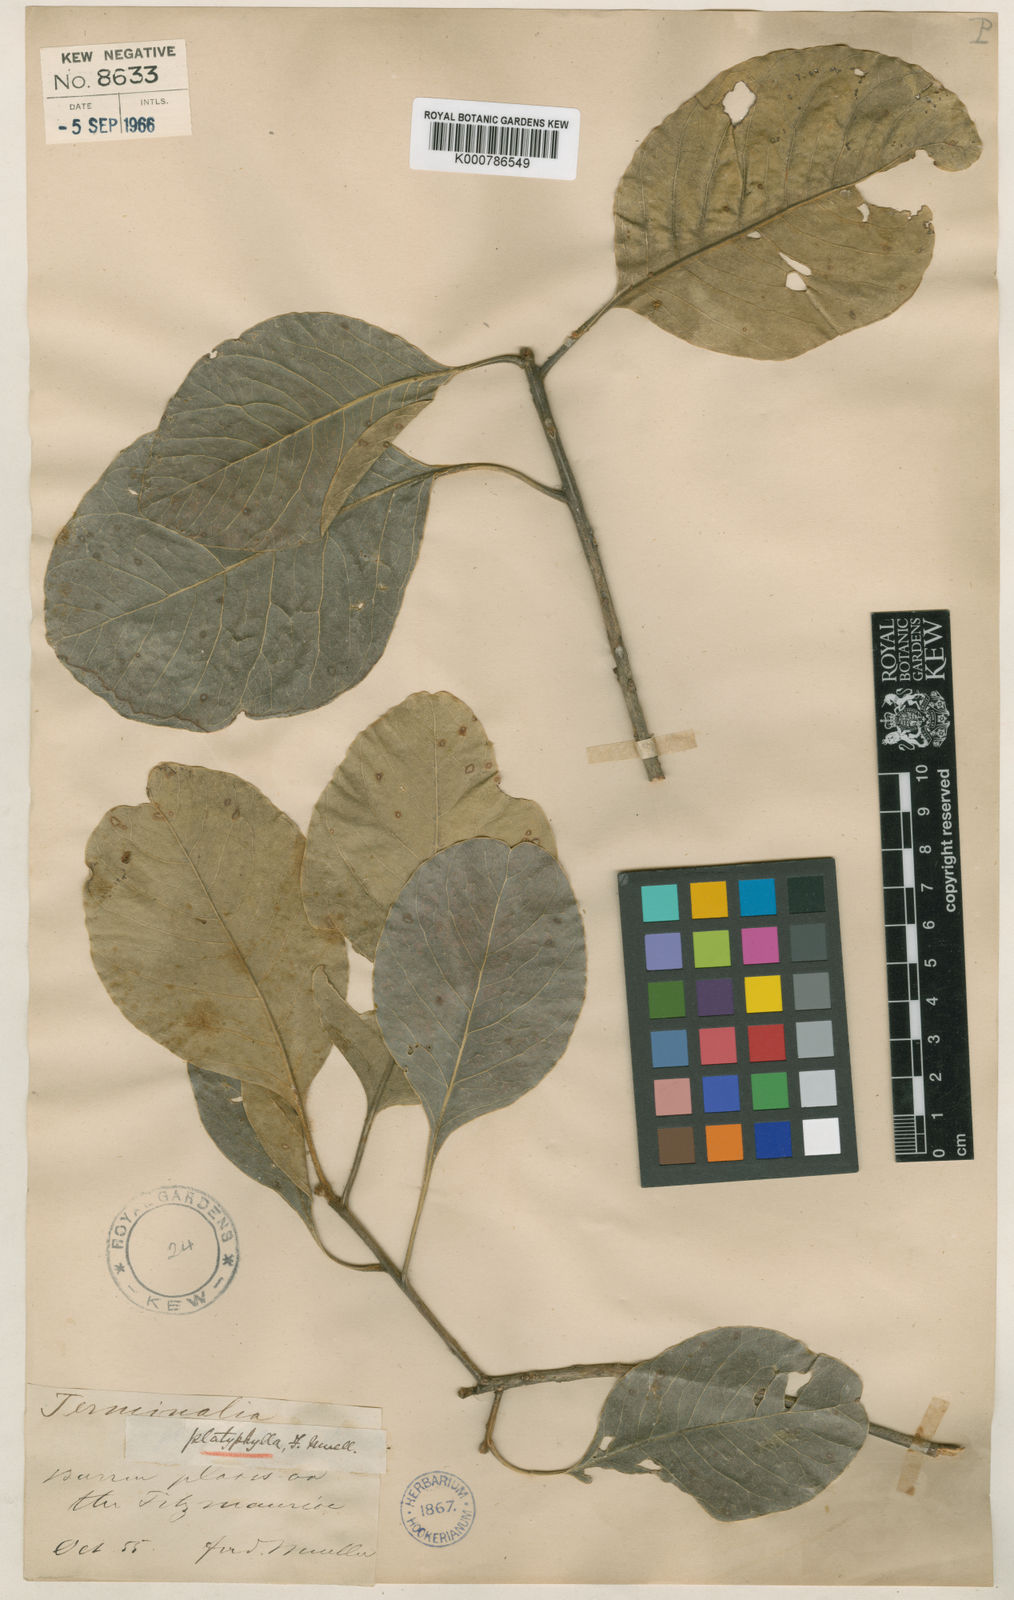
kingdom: Plantae
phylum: Tracheophyta
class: Magnoliopsida
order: Myrtales
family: Combretaceae
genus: Terminalia
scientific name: Terminalia platyphylla
